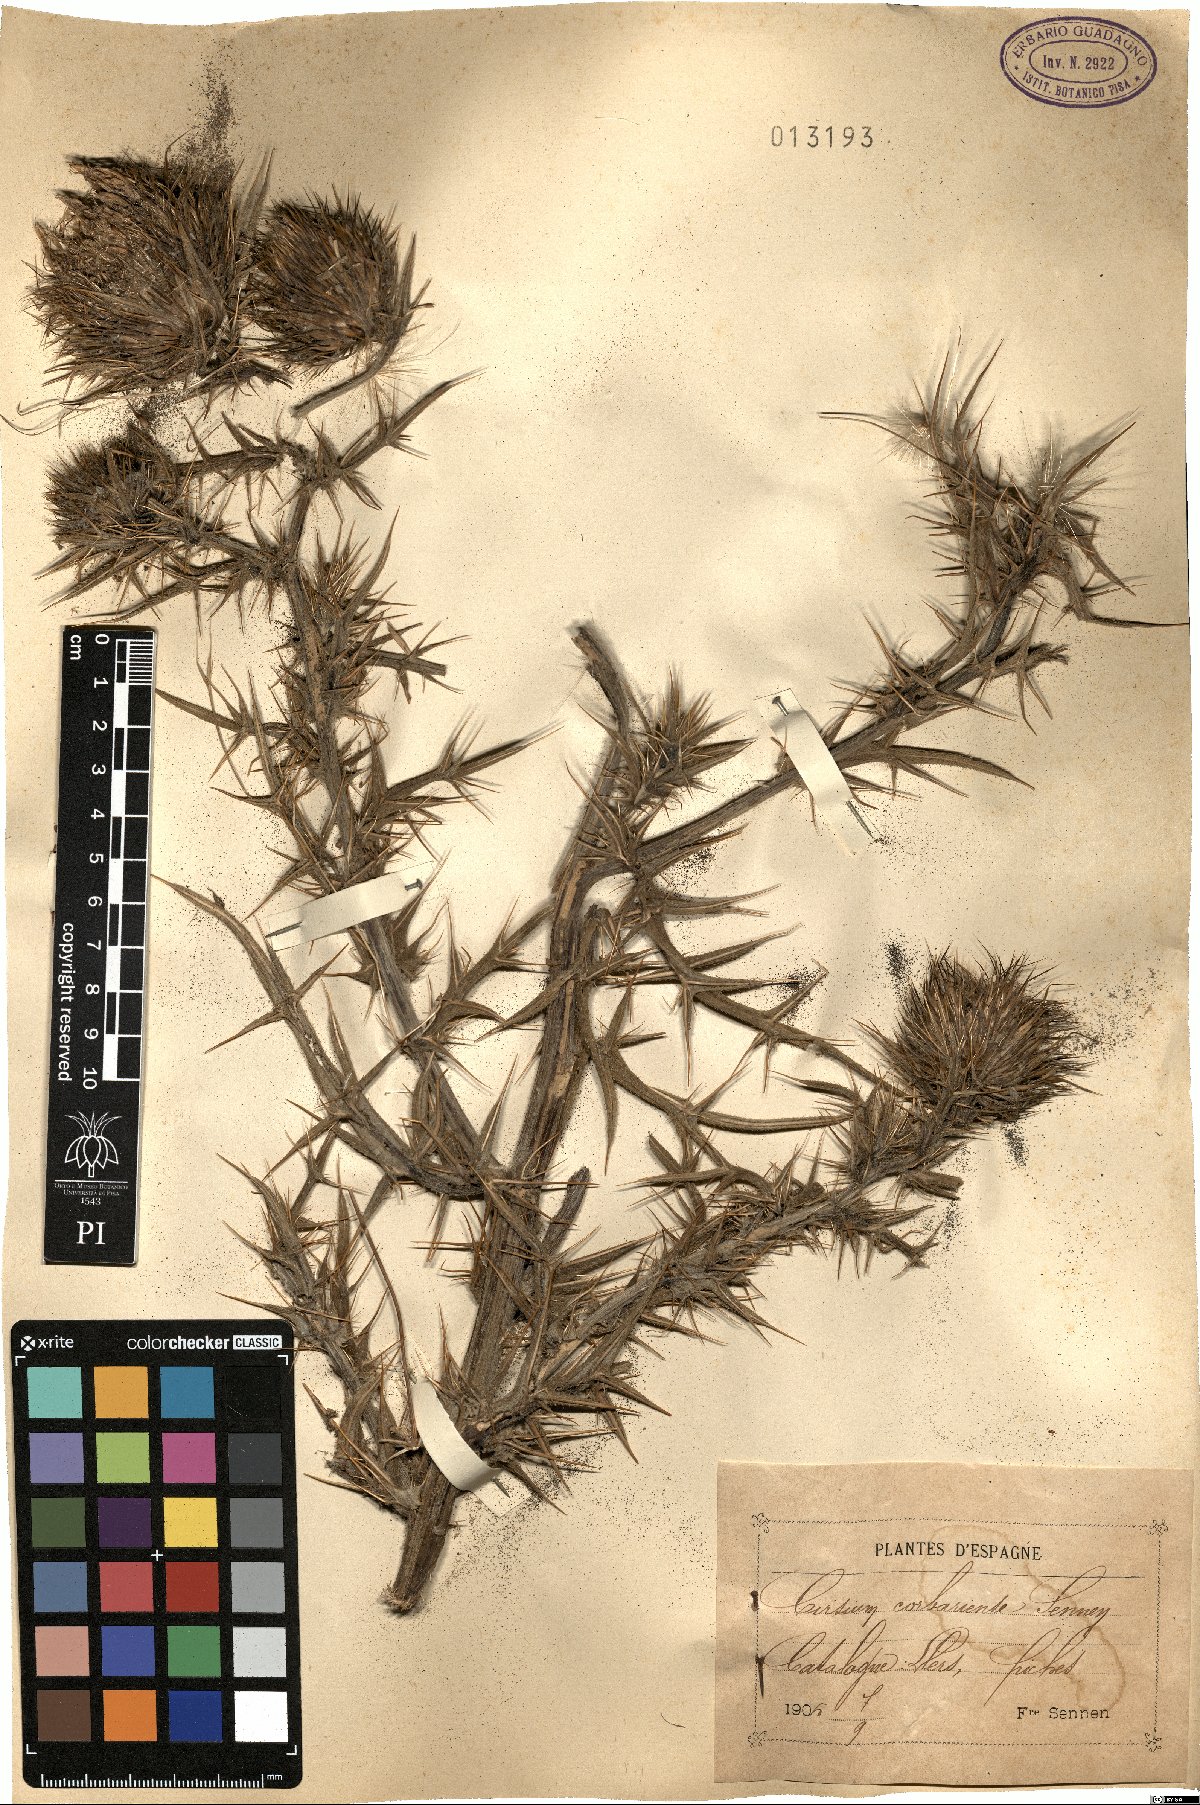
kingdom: Plantae
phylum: Tracheophyta
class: Magnoliopsida
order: Asterales
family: Asteraceae
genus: Lophiolepis
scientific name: Lophiolepis eriophora
